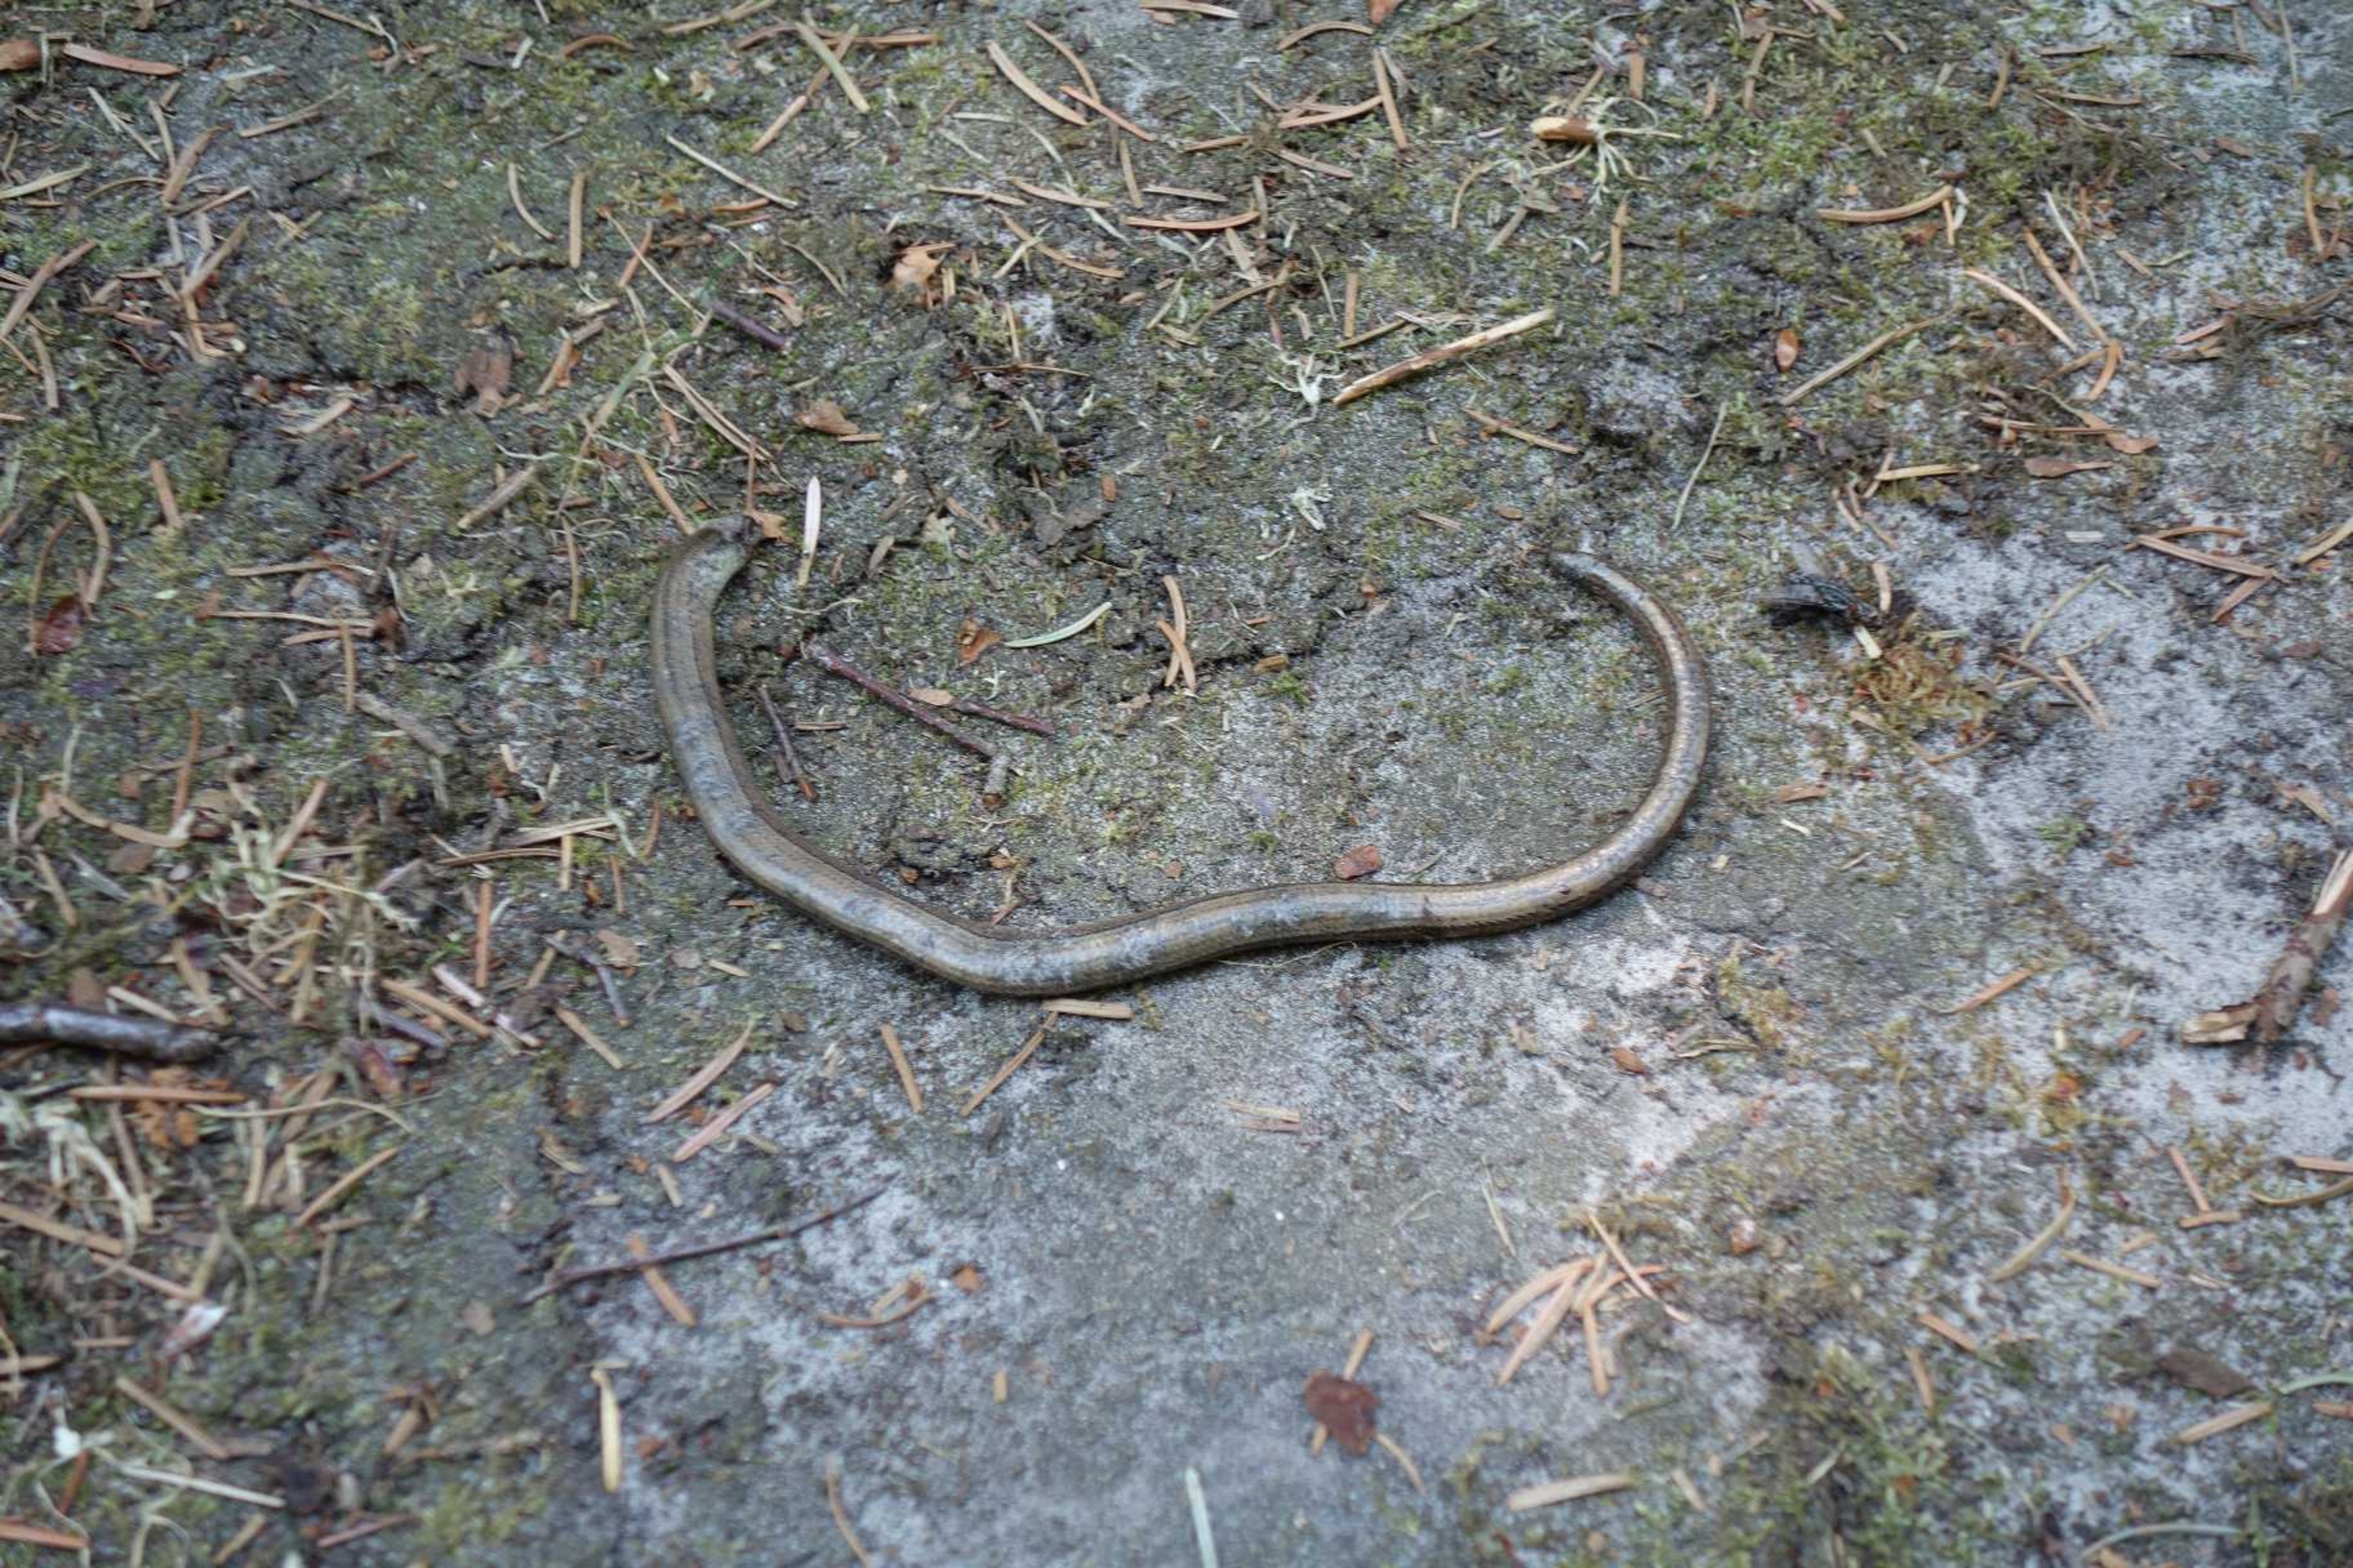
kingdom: Animalia
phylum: Chordata
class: Squamata
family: Anguidae
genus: Anguis
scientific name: Anguis fragilis
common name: Stålorm
